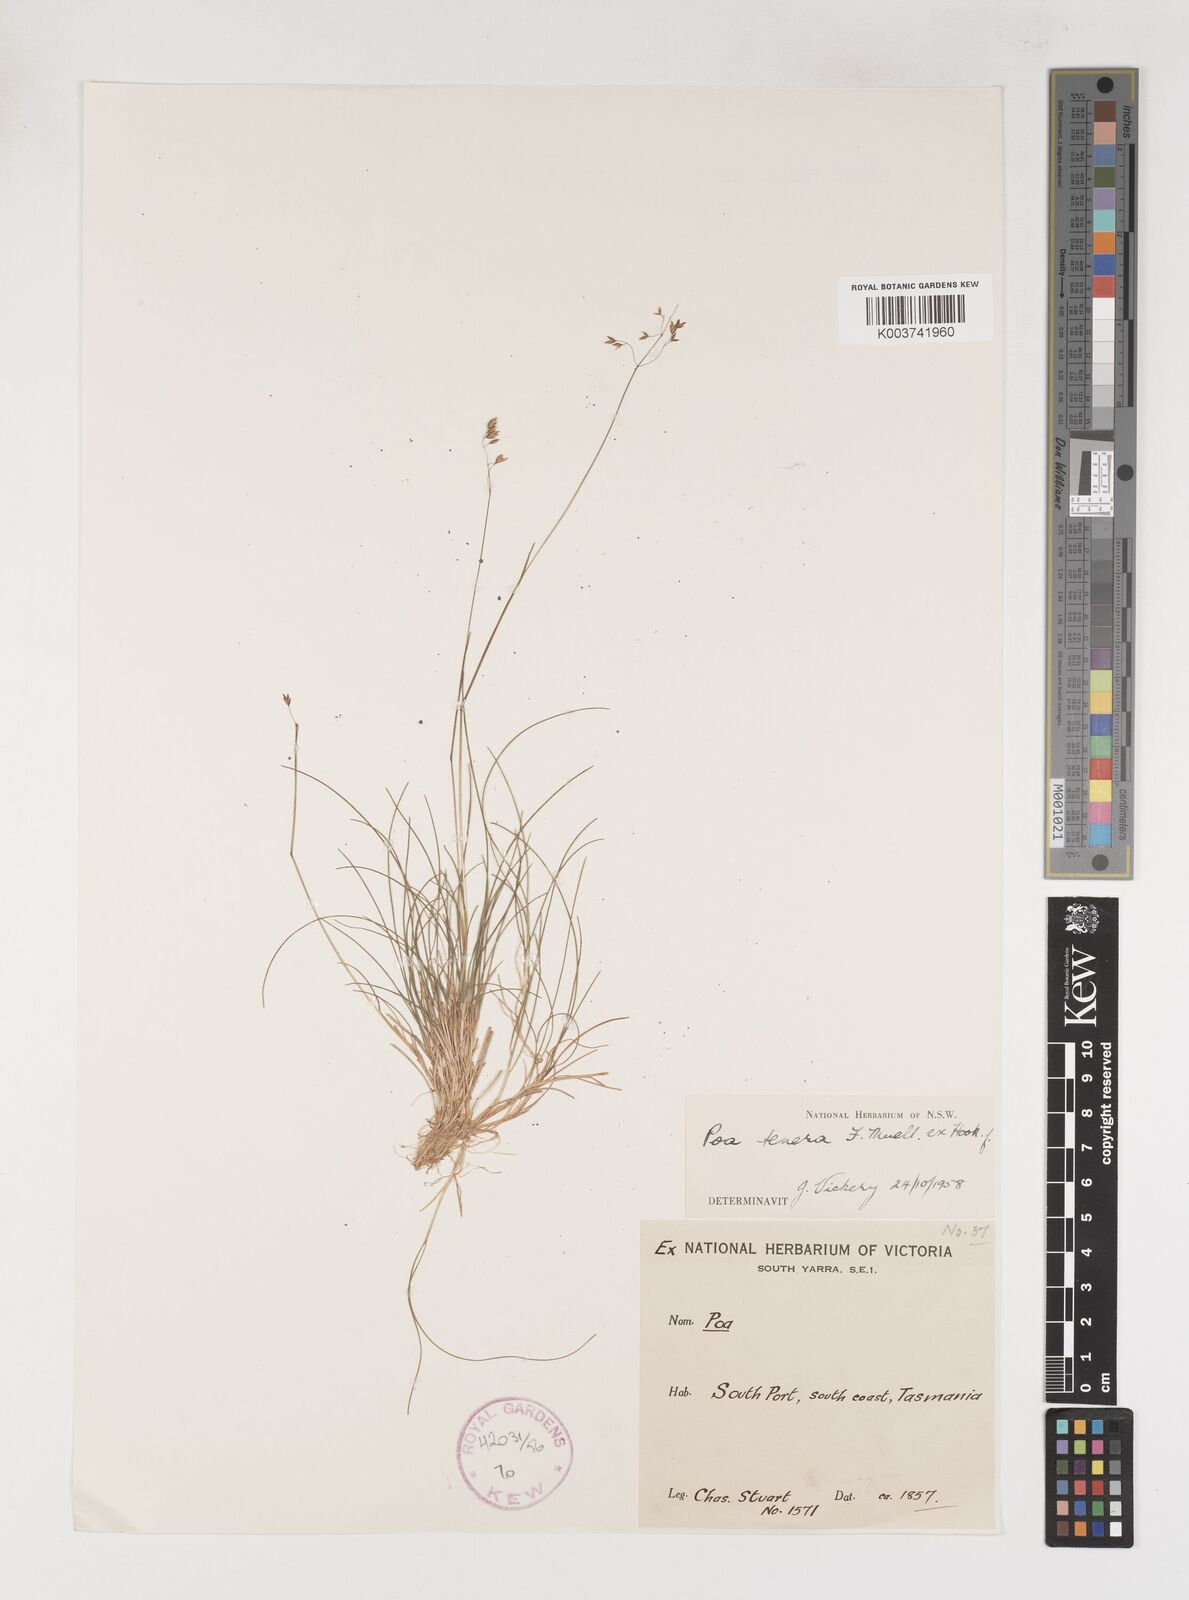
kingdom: Plantae
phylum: Tracheophyta
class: Liliopsida
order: Poales
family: Poaceae
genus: Poa
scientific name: Poa tenera
